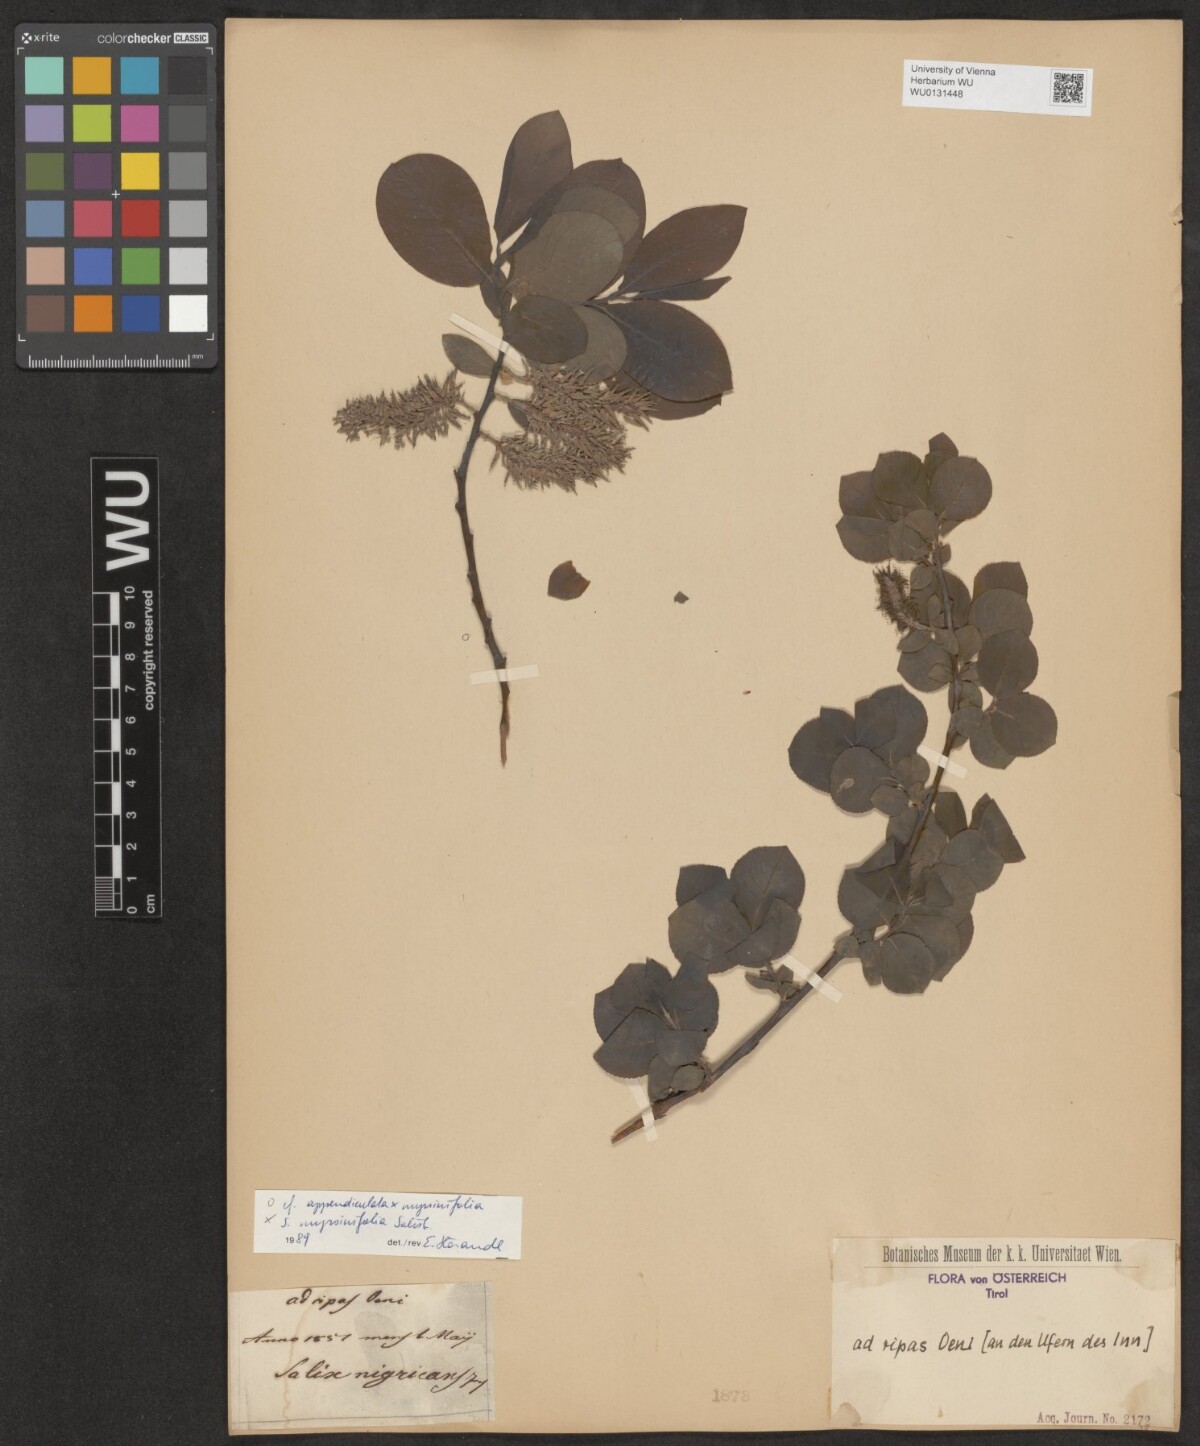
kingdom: Plantae
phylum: Tracheophyta
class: Magnoliopsida
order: Malpighiales
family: Salicaceae
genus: Salix
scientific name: Salix myrsinifolia
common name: Dark-leaved willow
